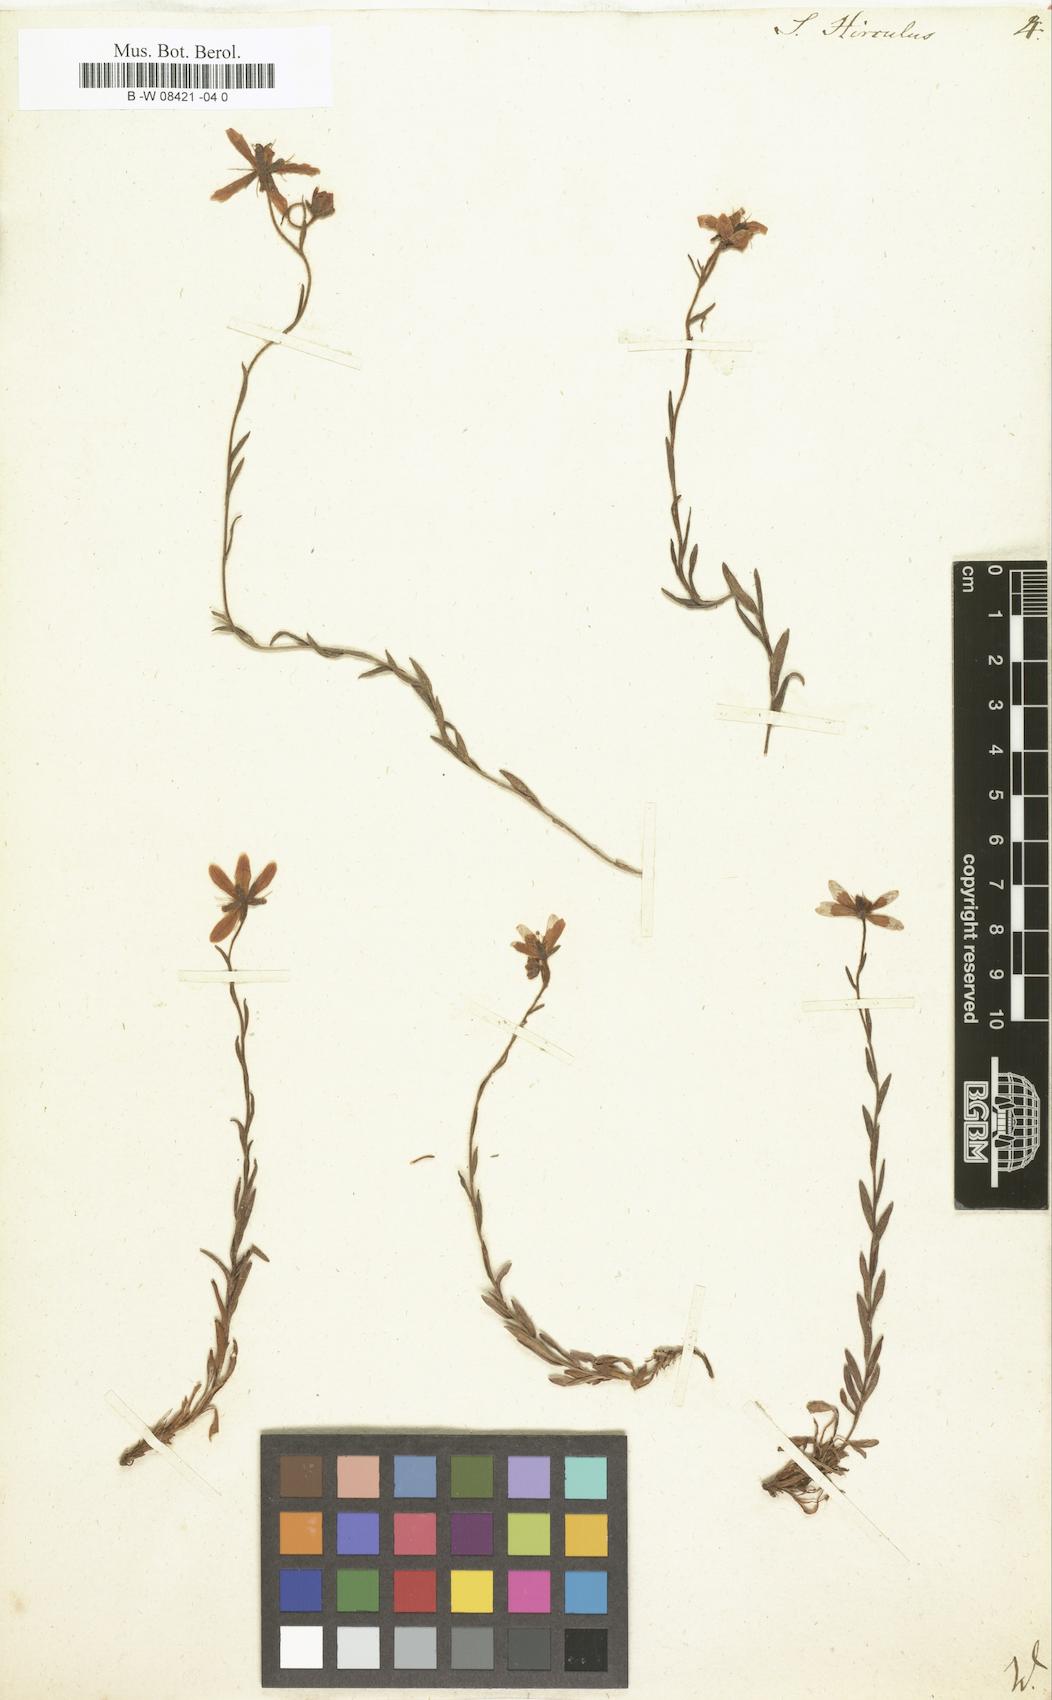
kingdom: Plantae
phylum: Tracheophyta
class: Magnoliopsida
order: Saxifragales
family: Saxifragaceae
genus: Saxifraga
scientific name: Saxifraga hirculus
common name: Yellow marsh saxifrage
